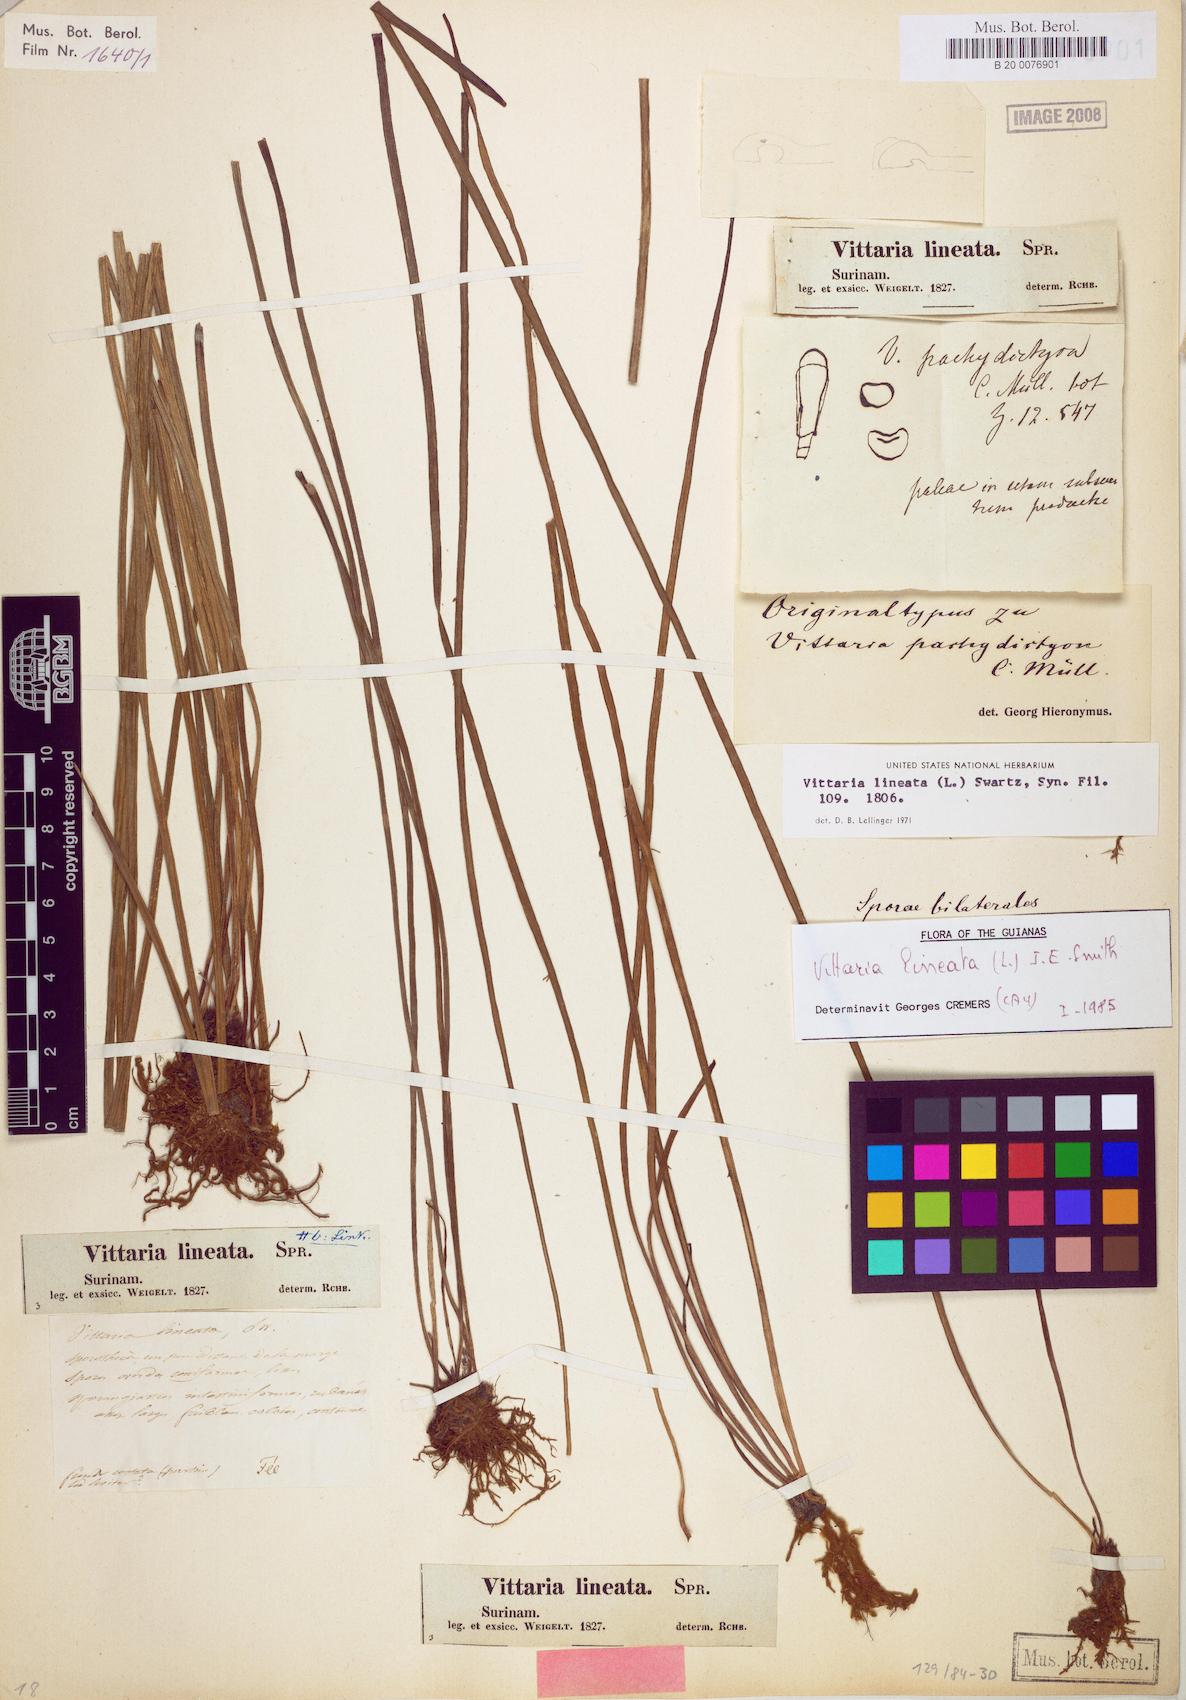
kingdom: Plantae
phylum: Tracheophyta
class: Polypodiopsida
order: Polypodiales
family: Pteridaceae
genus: Vittaria
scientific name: Vittaria lineata
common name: Shoestring fern
